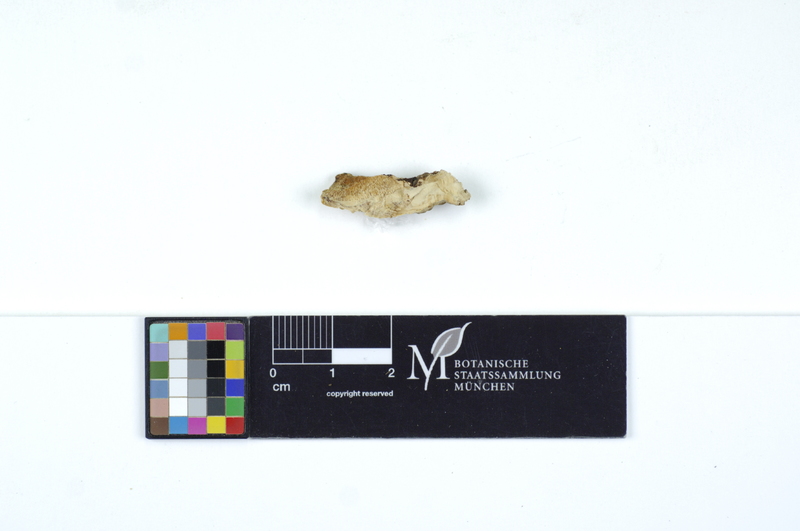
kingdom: Fungi
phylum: Basidiomycota
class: Agaricomycetes
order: Polyporales
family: Steccherinaceae
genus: Antrodiella
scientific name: Antrodiella serpula
